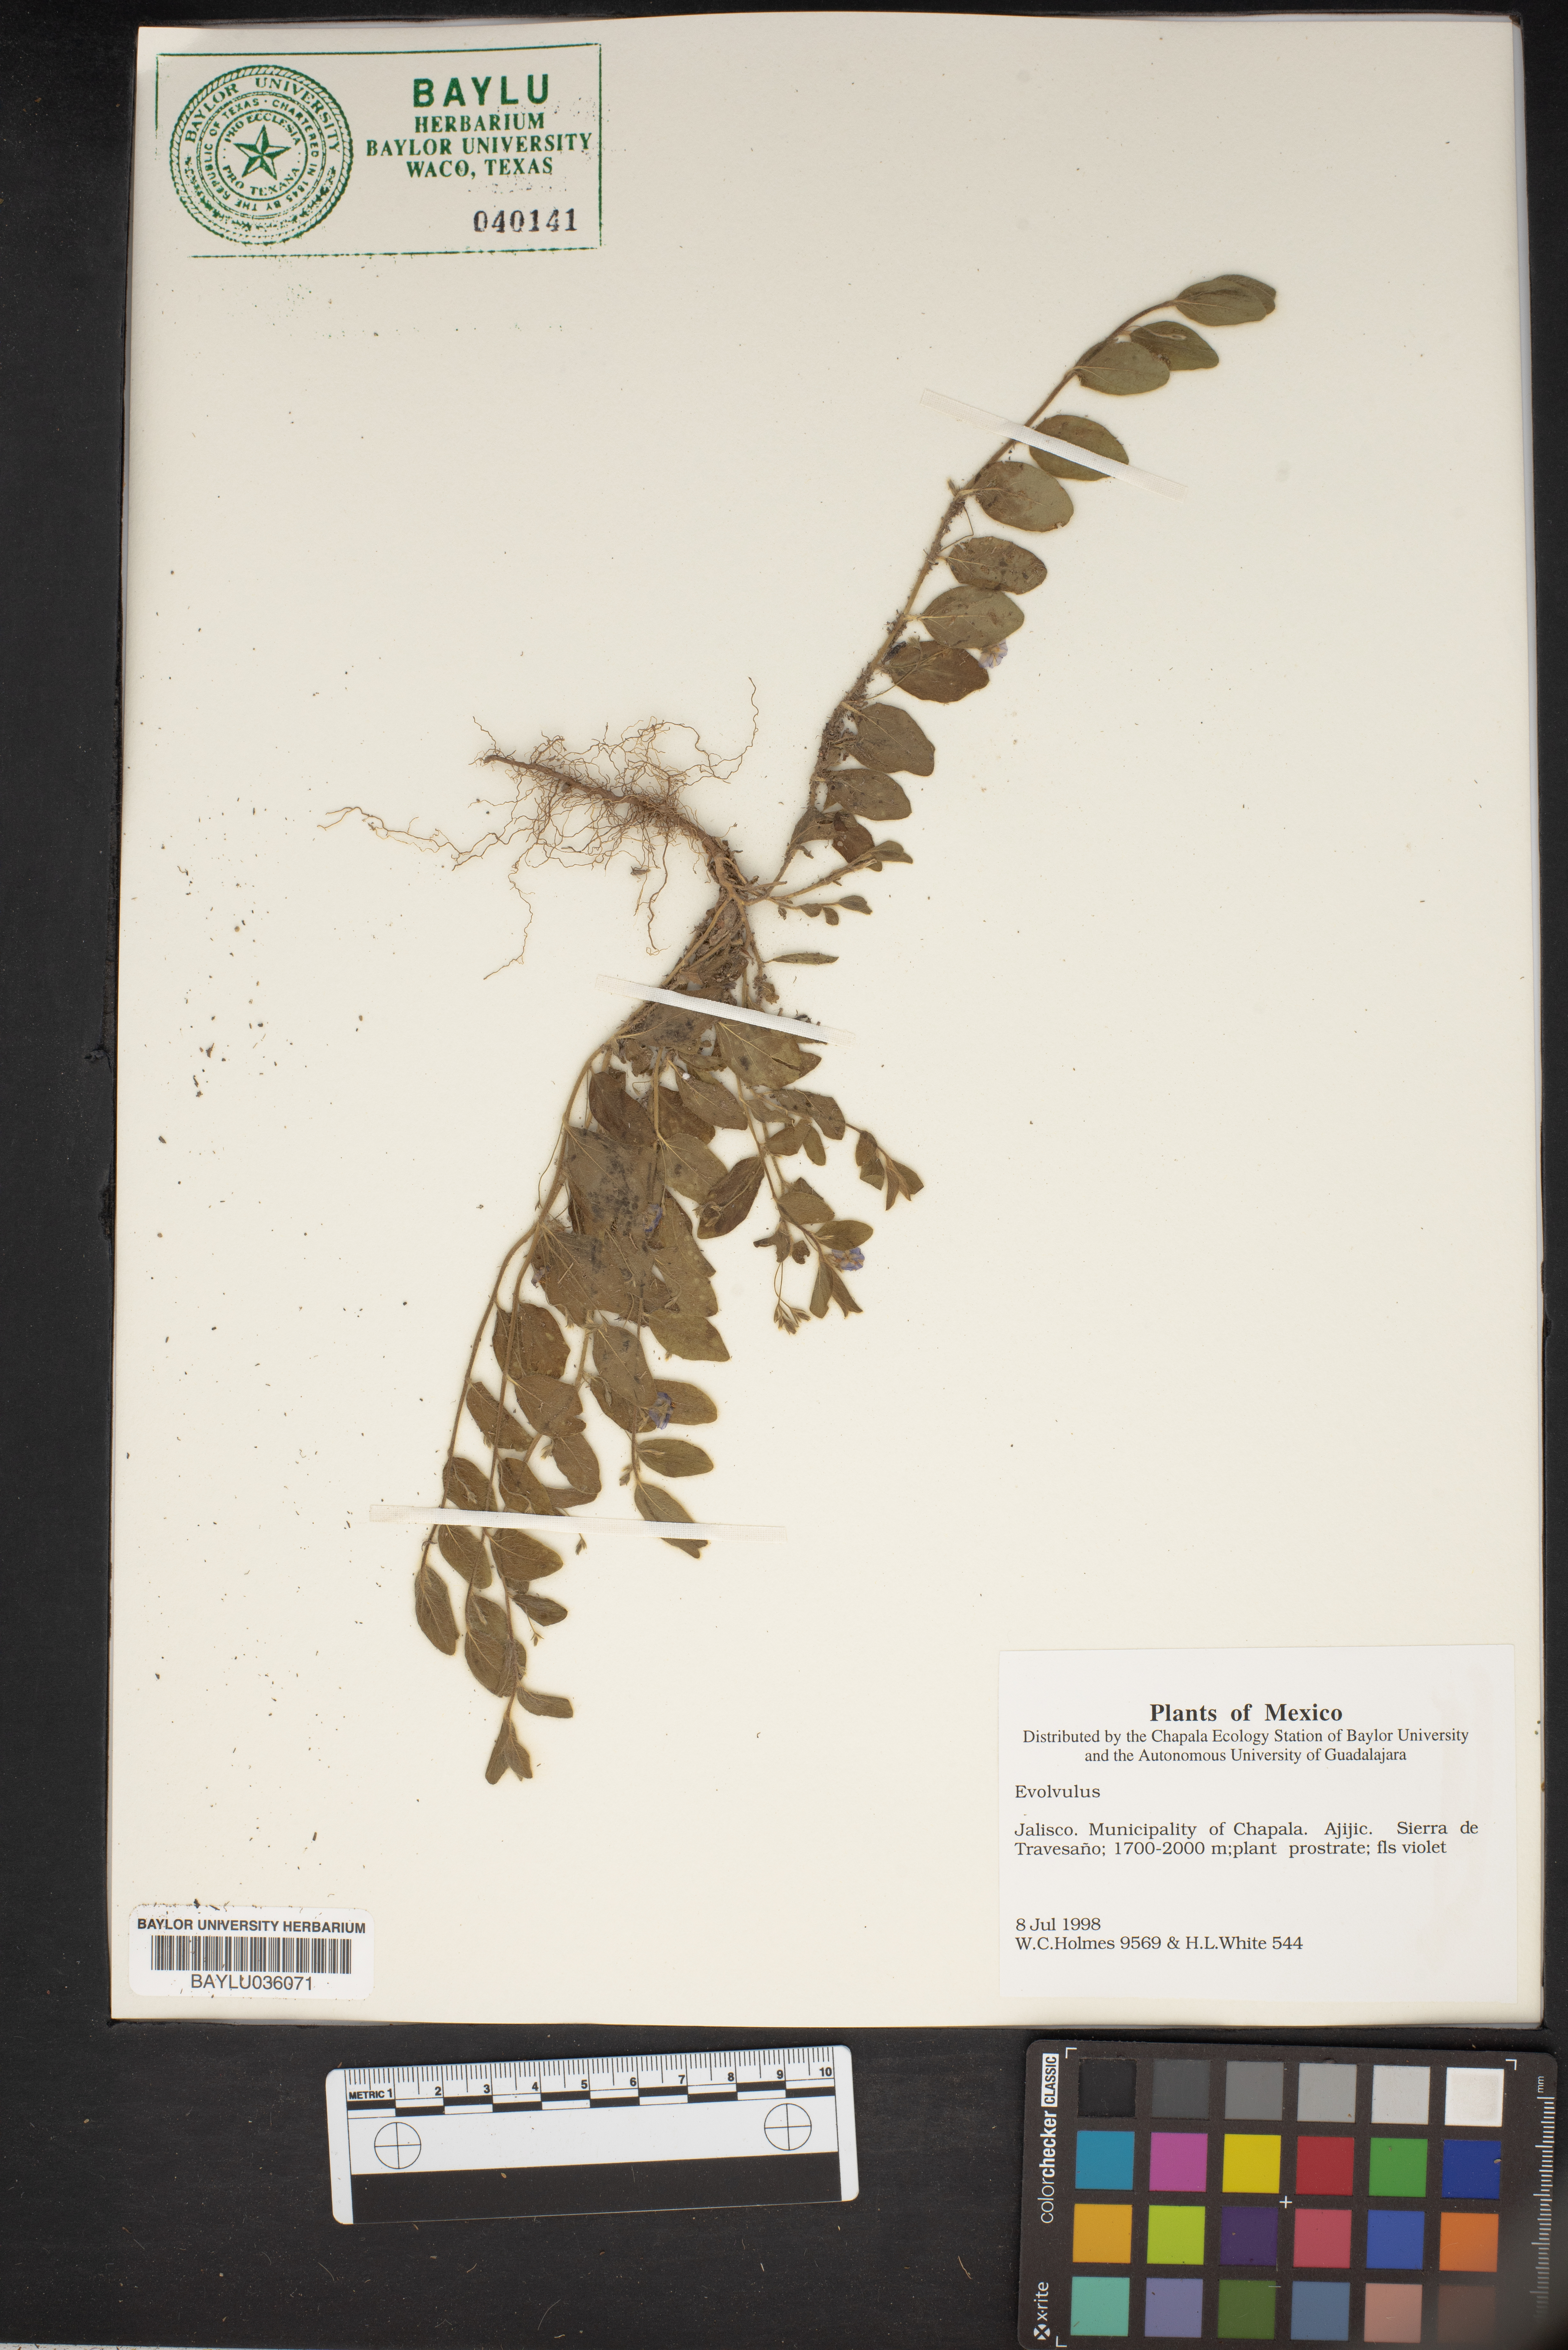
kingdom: Plantae
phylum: Tracheophyta
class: Magnoliopsida
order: Solanales
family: Convolvulaceae
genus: Evolvulus
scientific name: Evolvulus
